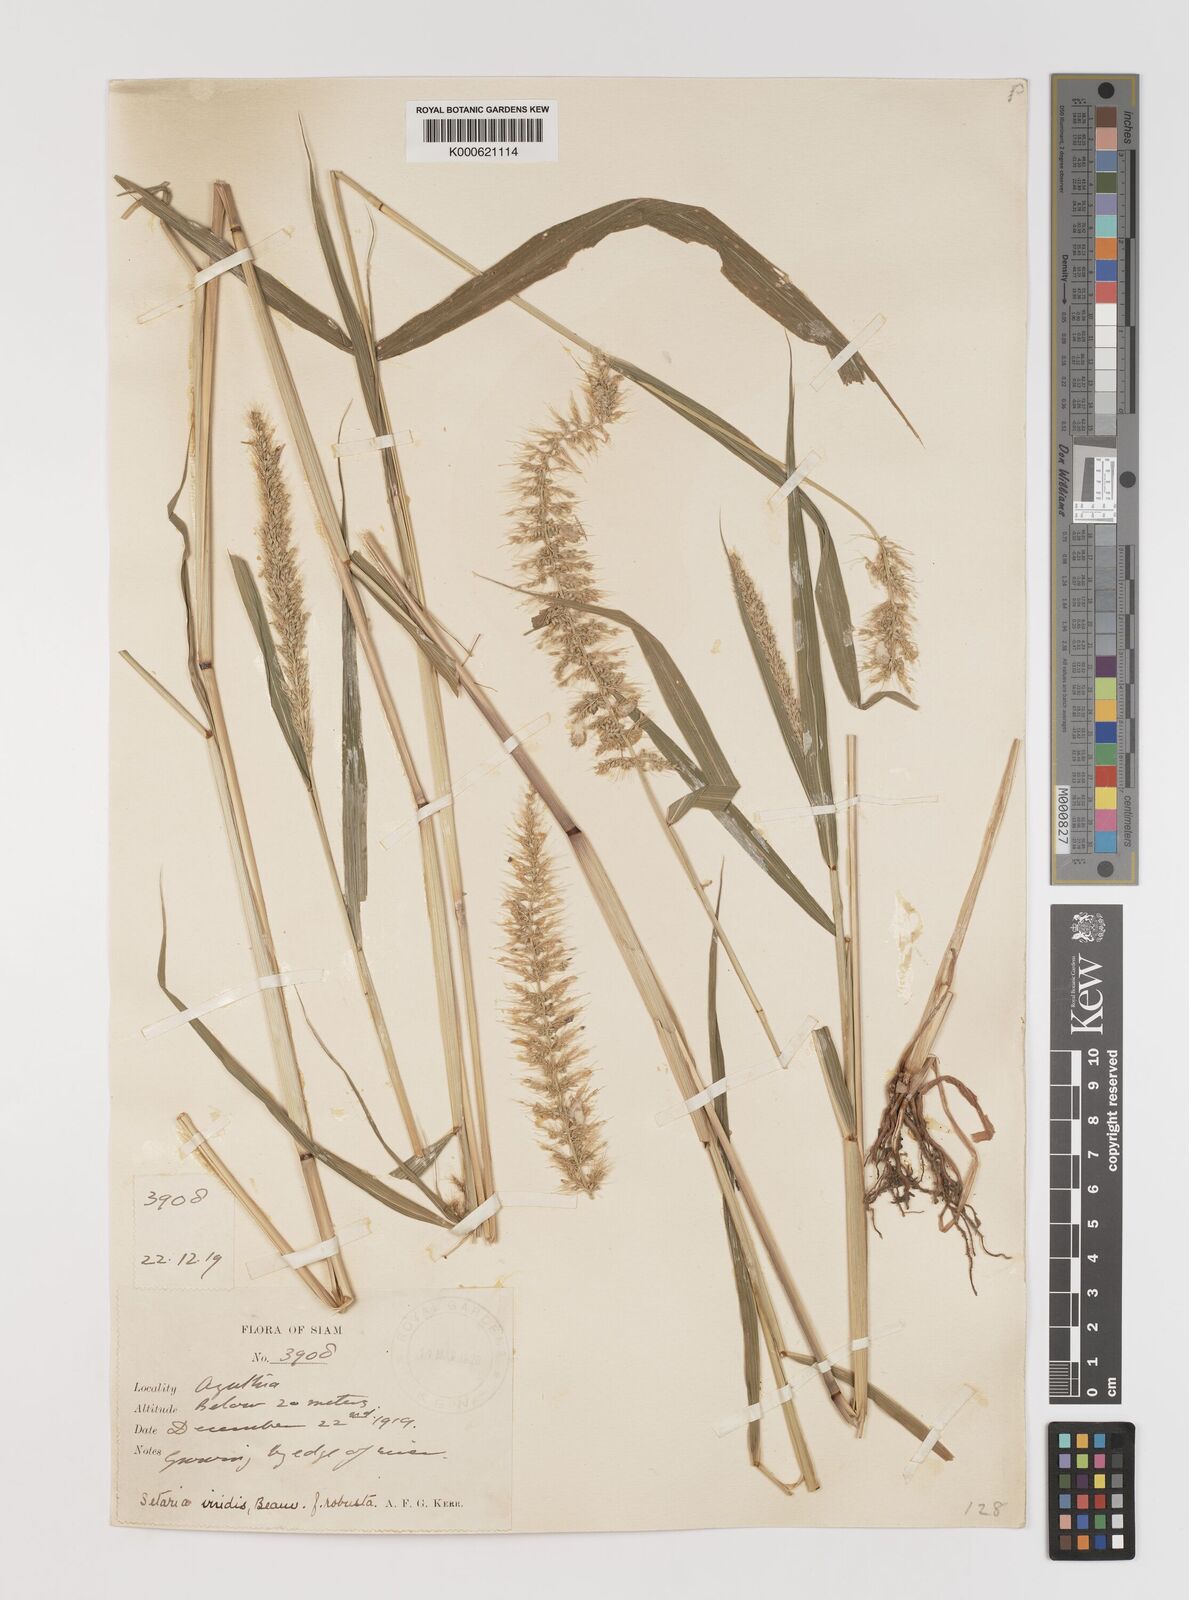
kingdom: Plantae
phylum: Tracheophyta
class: Liliopsida
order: Poales
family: Poaceae
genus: Setaria
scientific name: Setaria viridis
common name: Green bristlegrass
